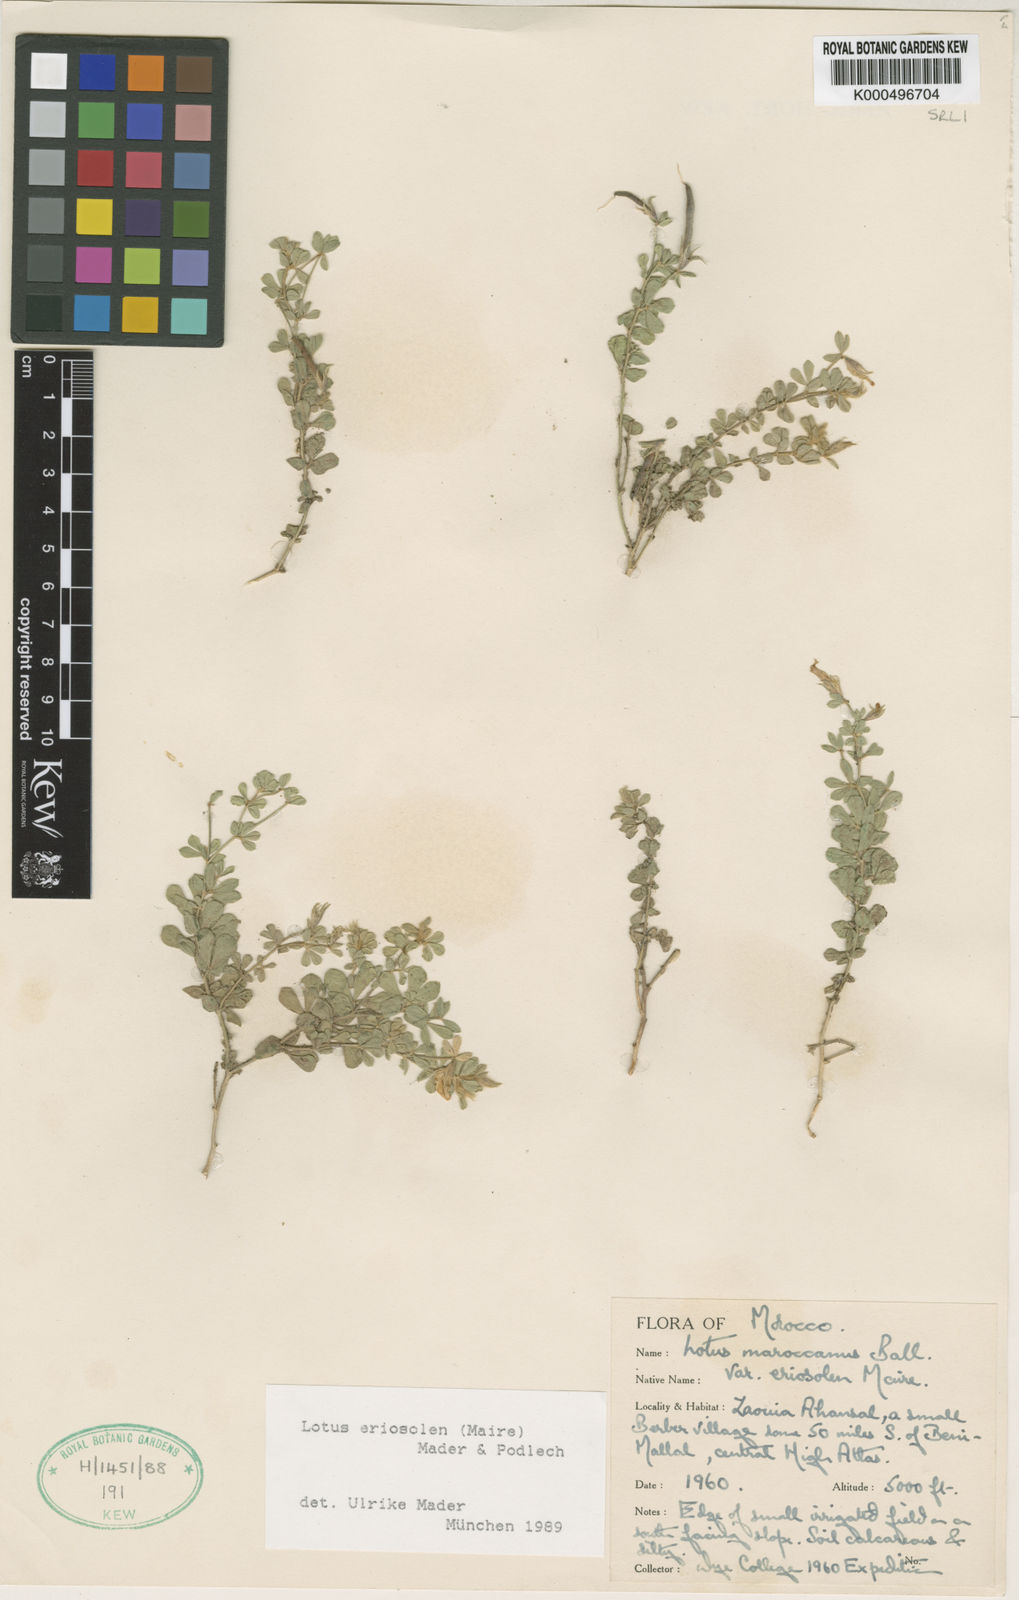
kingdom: Plantae
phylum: Tracheophyta
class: Magnoliopsida
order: Fabales
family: Fabaceae
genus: Lotus
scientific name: Lotus villicarpus
